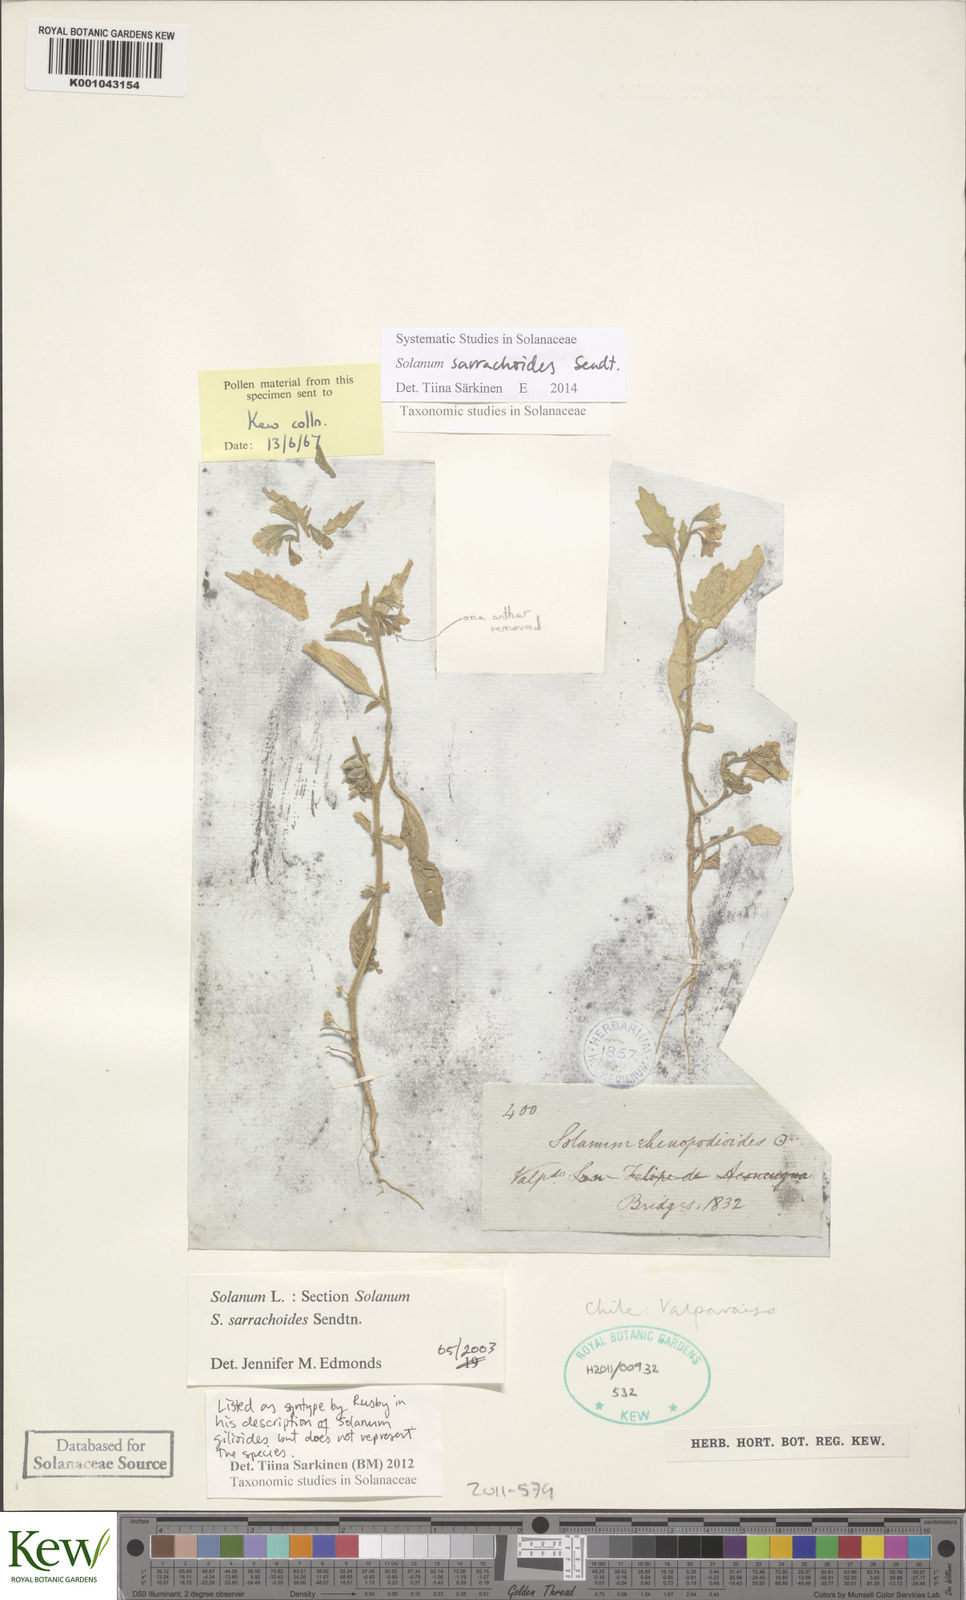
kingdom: Plantae
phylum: Tracheophyta
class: Magnoliopsida
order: Solanales
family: Solanaceae
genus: Solanum
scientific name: Solanum nitidibaccatum
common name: Hairy nightshade
